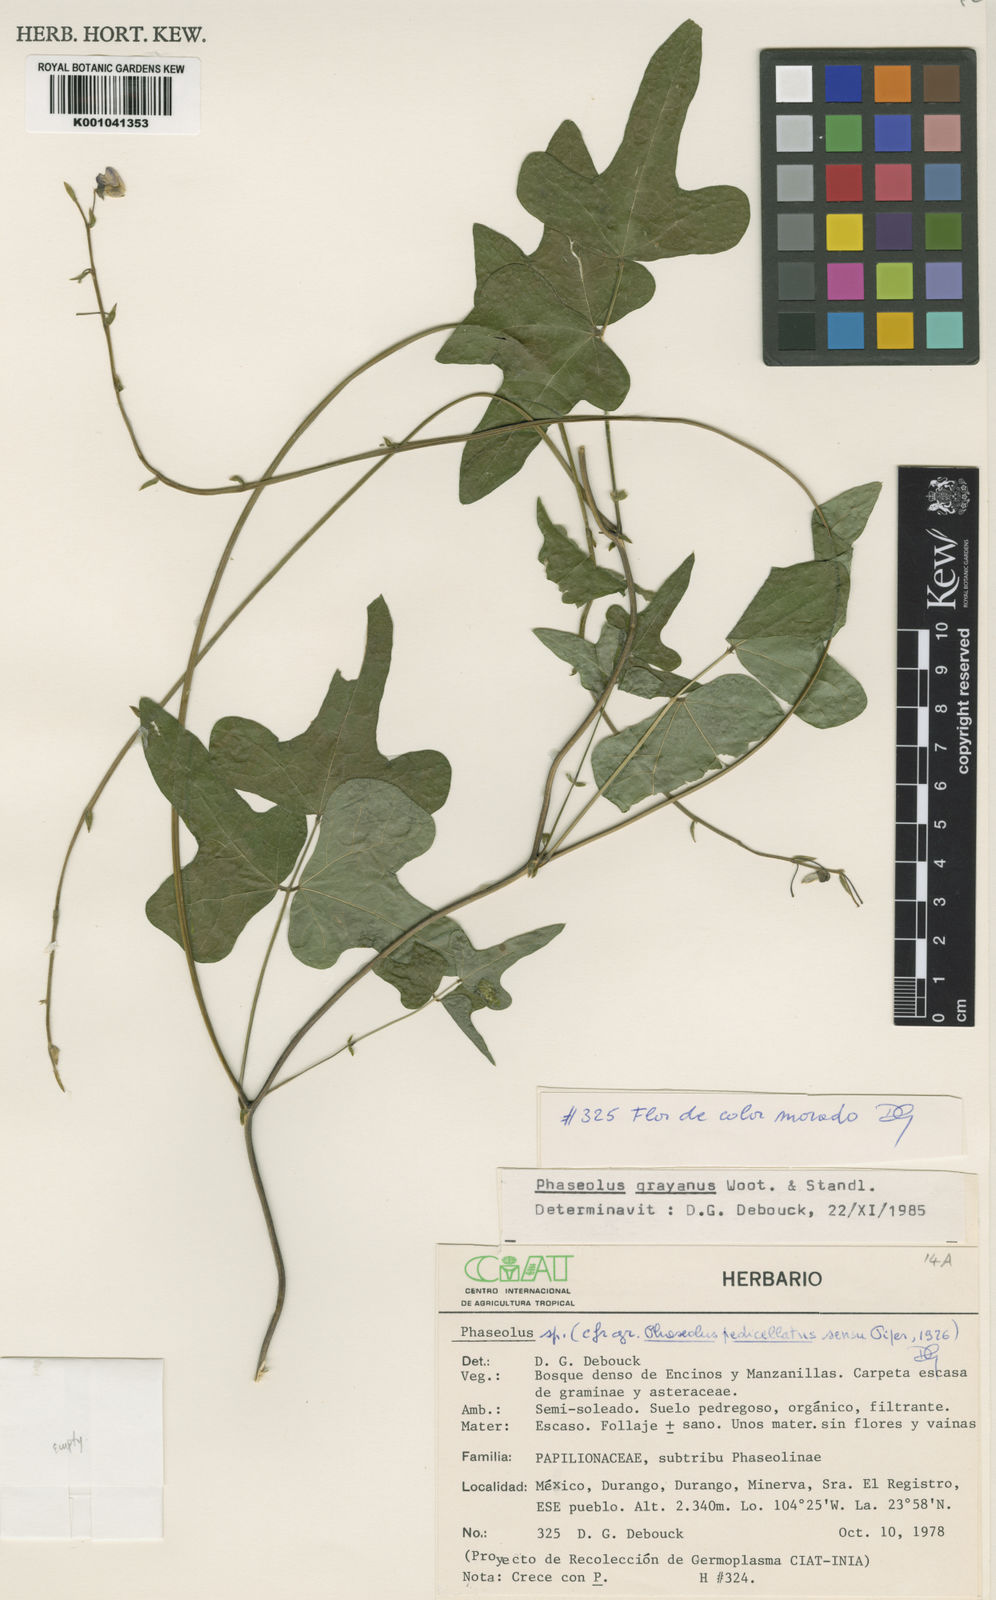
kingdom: Plantae
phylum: Tracheophyta
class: Magnoliopsida
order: Fabales
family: Fabaceae
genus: Phaseolus
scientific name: Phaseolus pedicellatus
